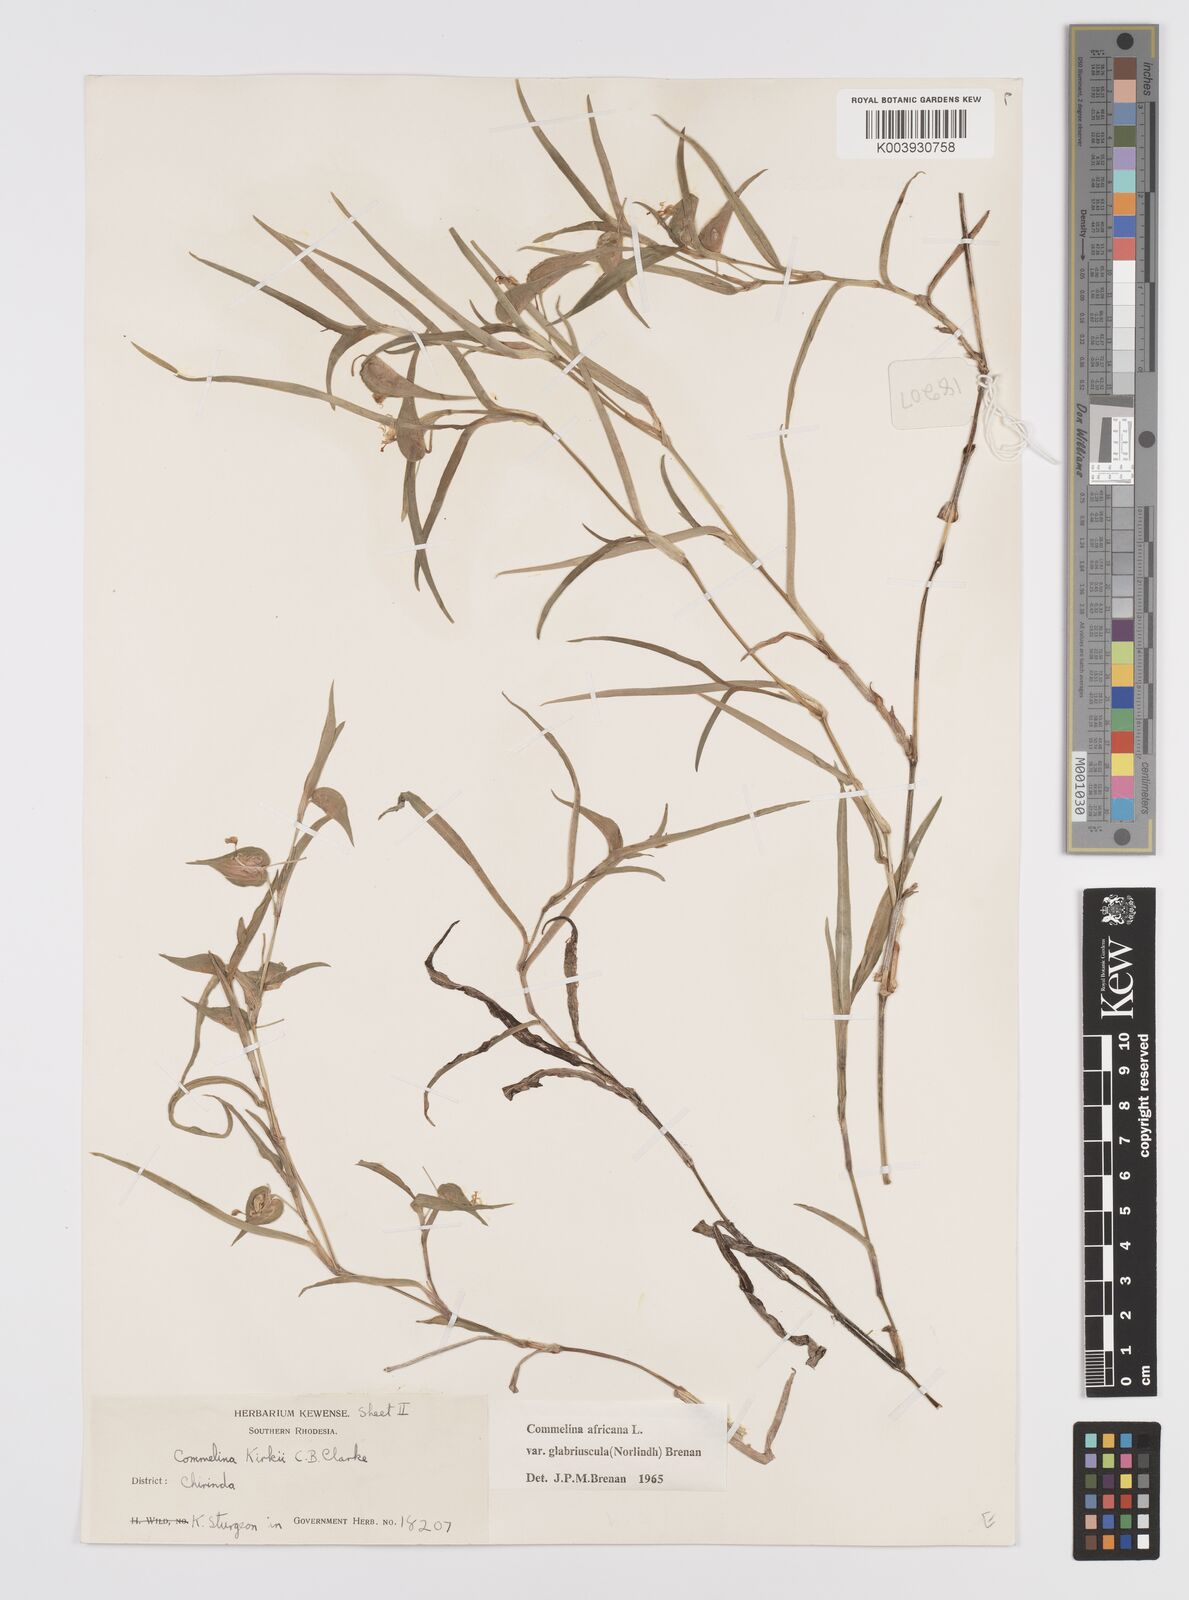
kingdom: Plantae
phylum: Tracheophyta
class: Liliopsida
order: Commelinales
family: Commelinaceae
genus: Commelina
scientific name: Commelina africana
